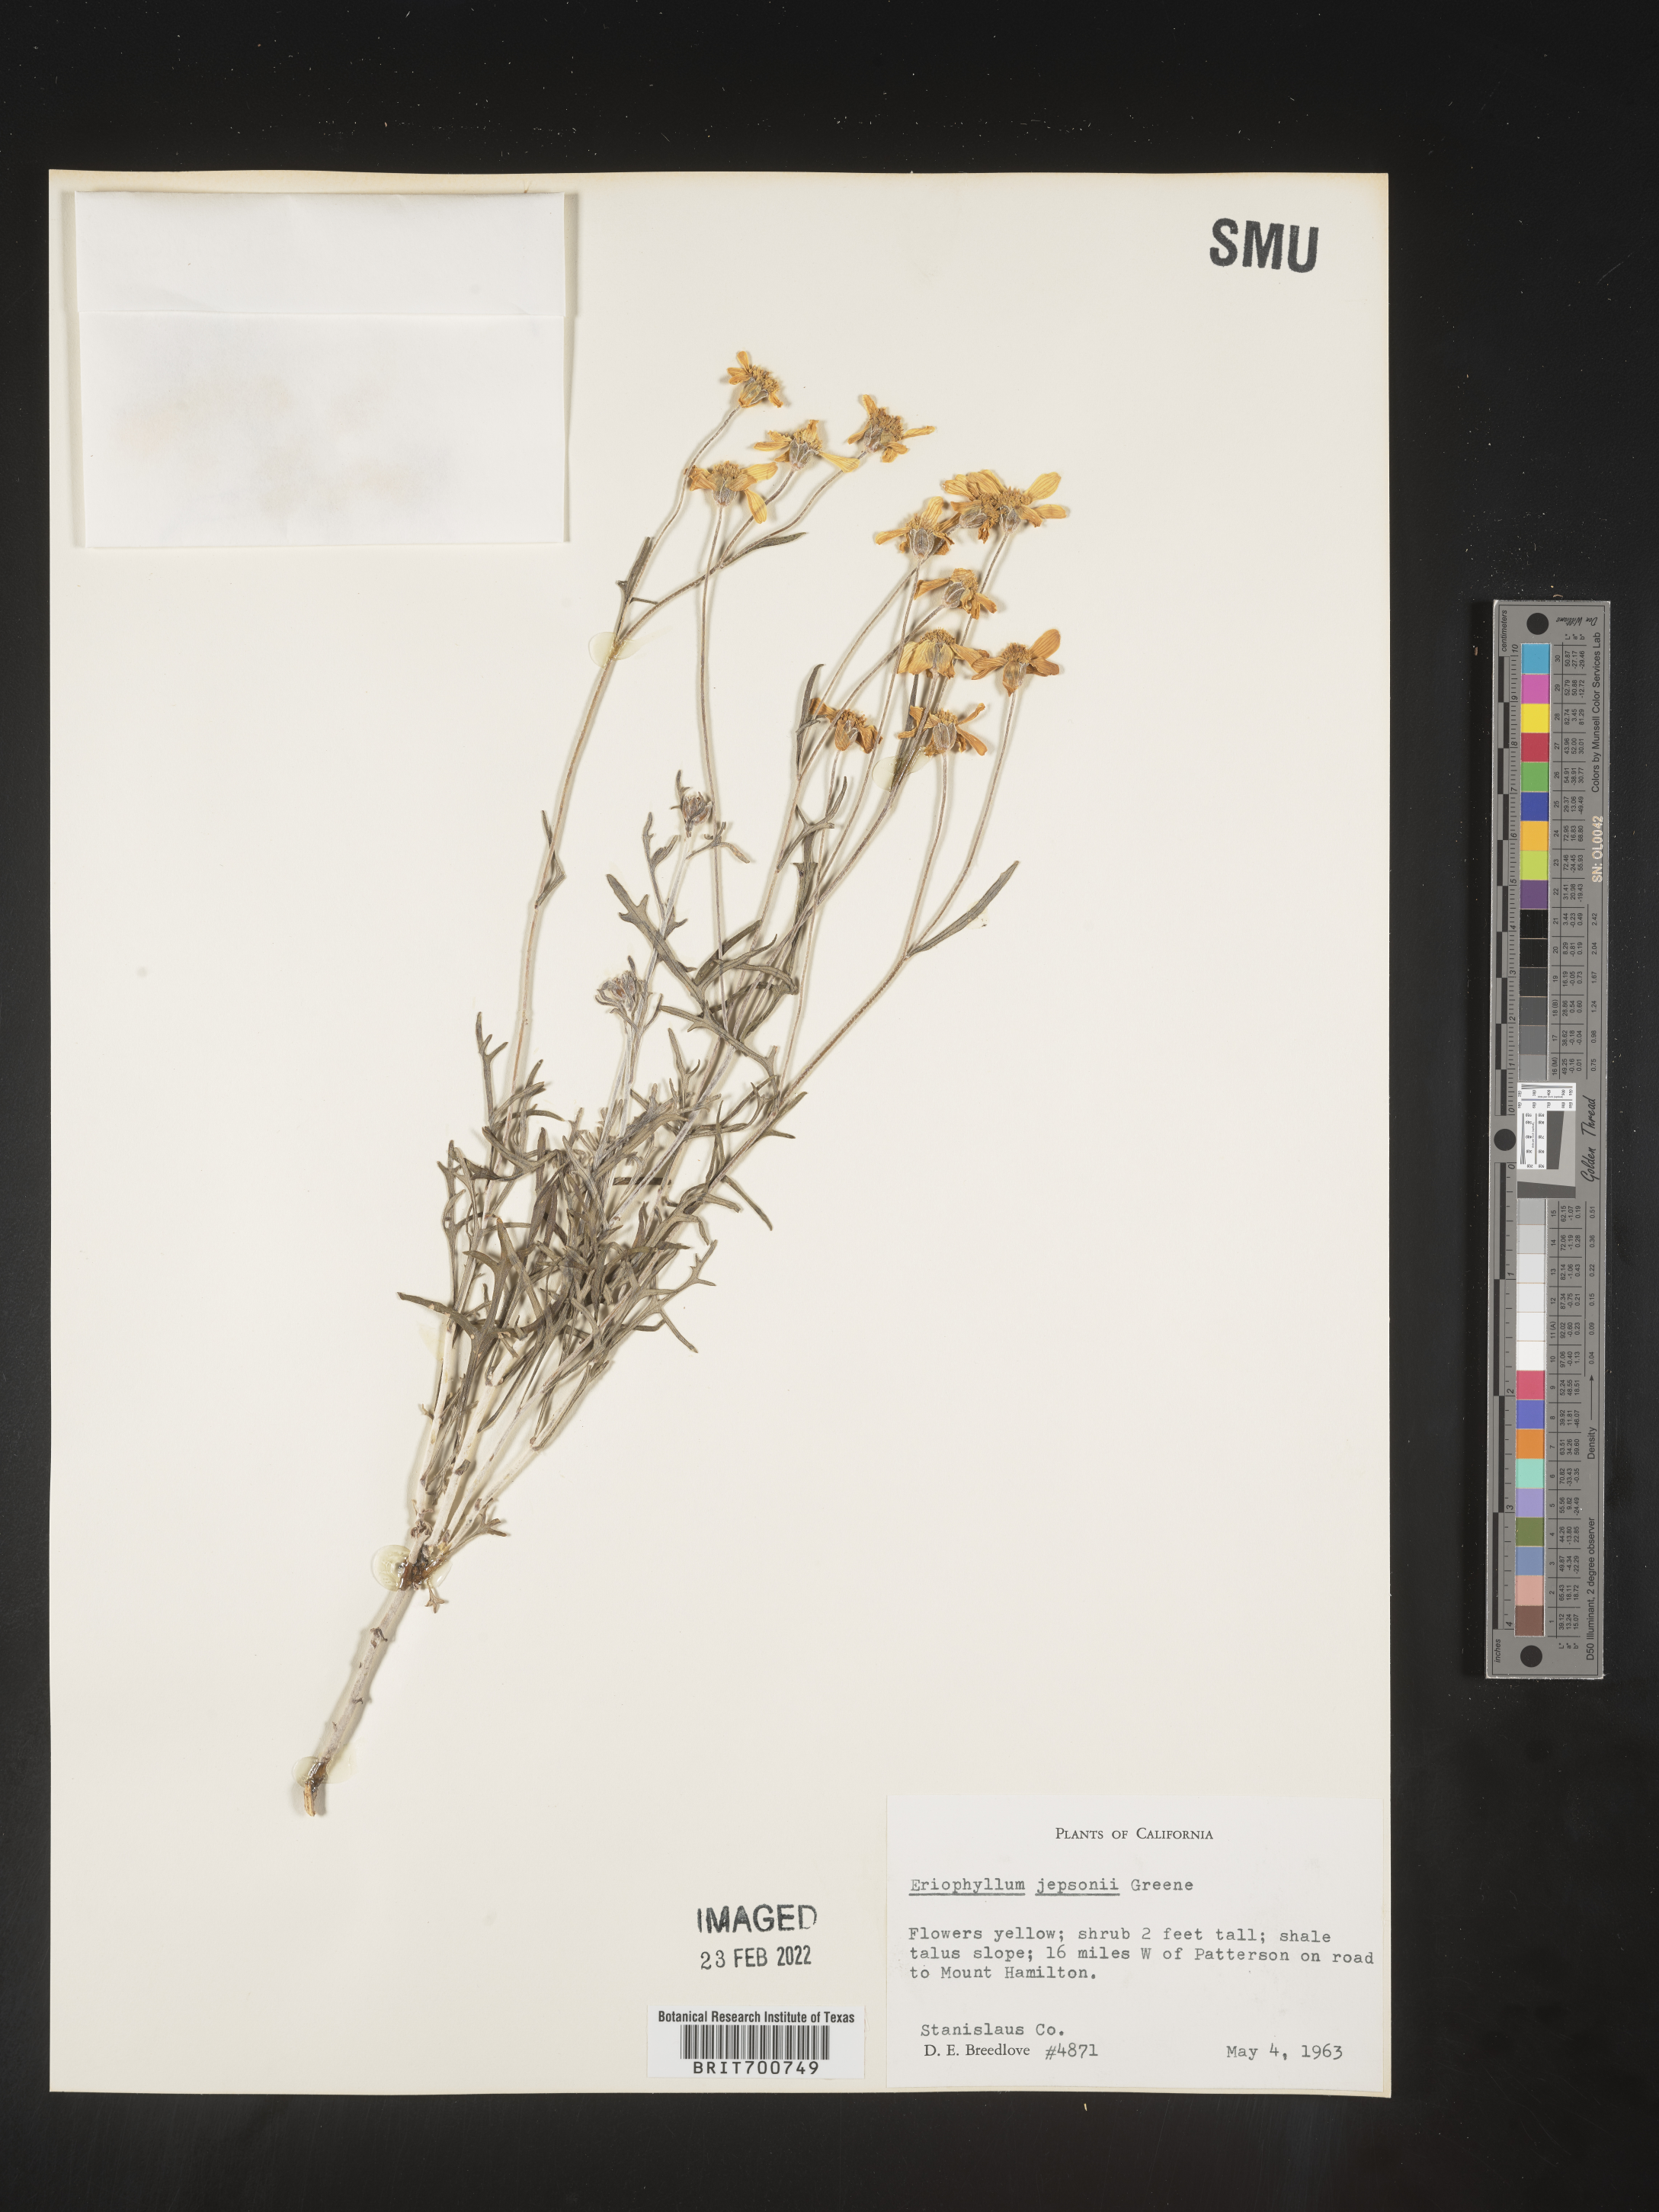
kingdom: Plantae
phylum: Tracheophyta
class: Magnoliopsida
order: Asterales
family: Asteraceae
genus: Eriophyllum
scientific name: Eriophyllum jepsonii
